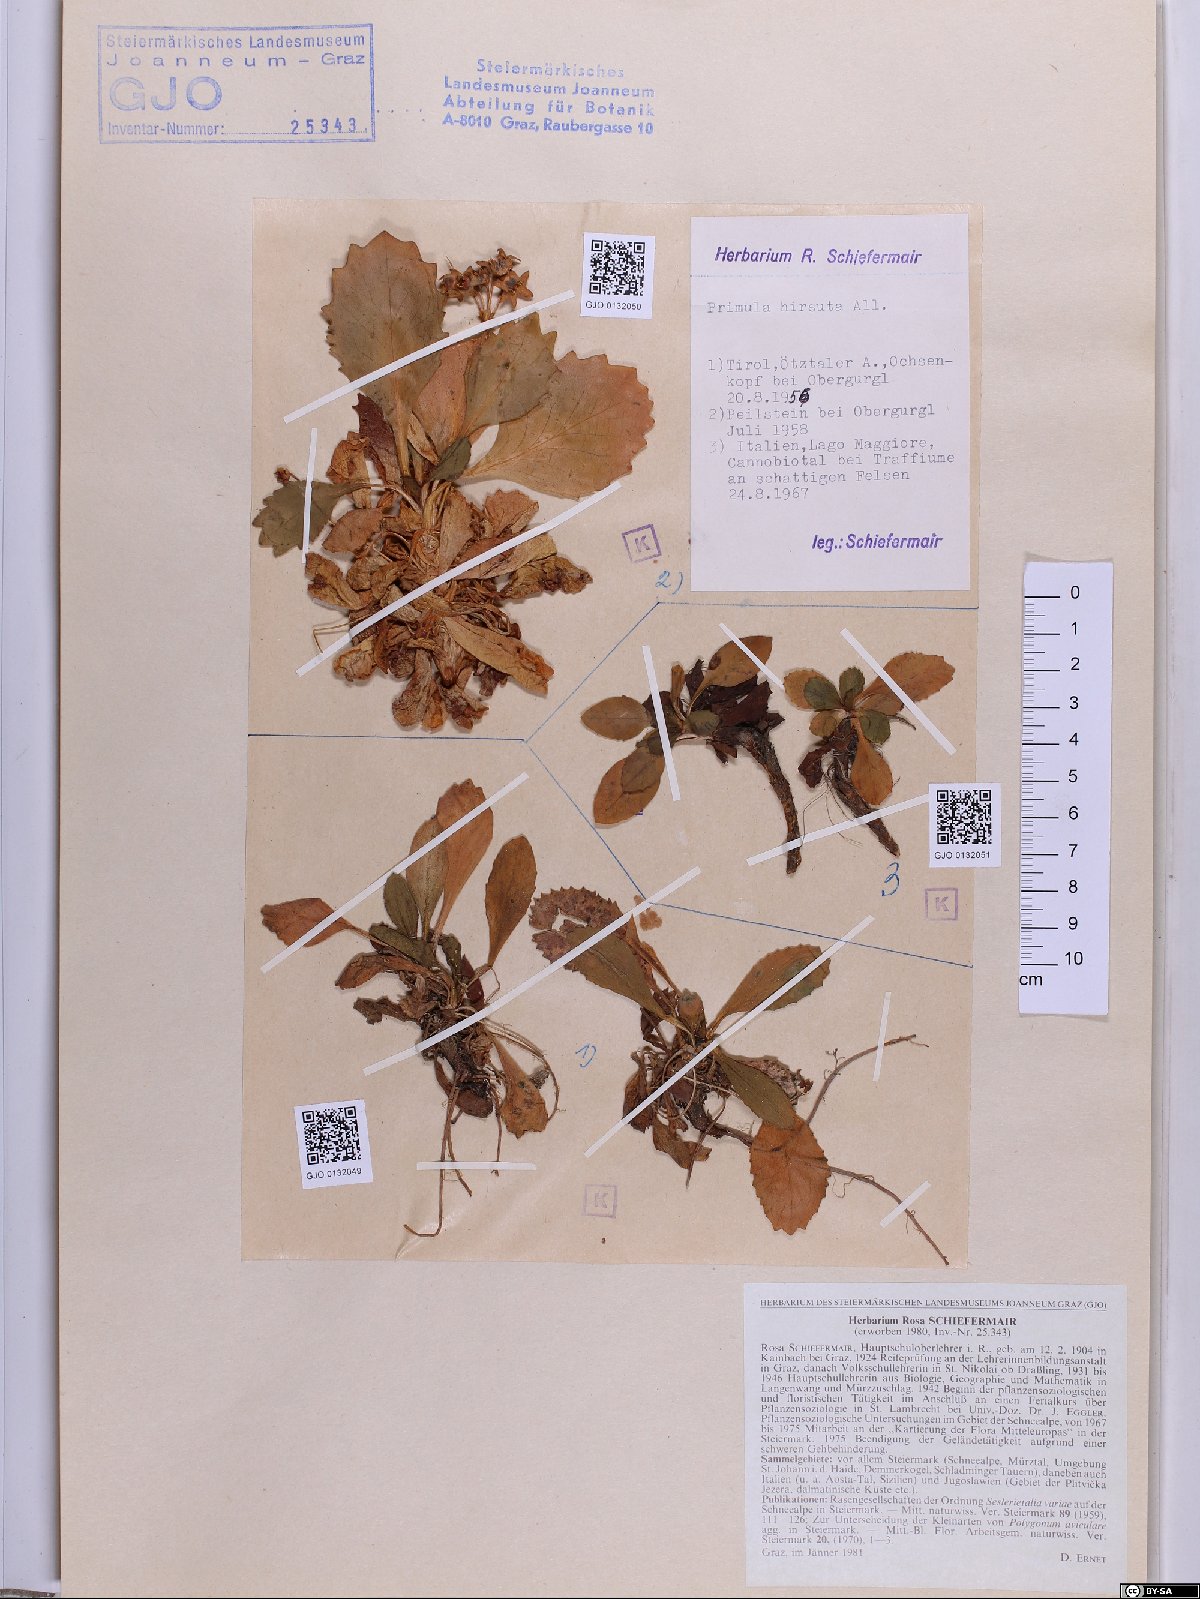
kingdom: Plantae
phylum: Tracheophyta
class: Magnoliopsida
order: Ericales
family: Primulaceae
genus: Primula
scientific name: Primula hirsuta
